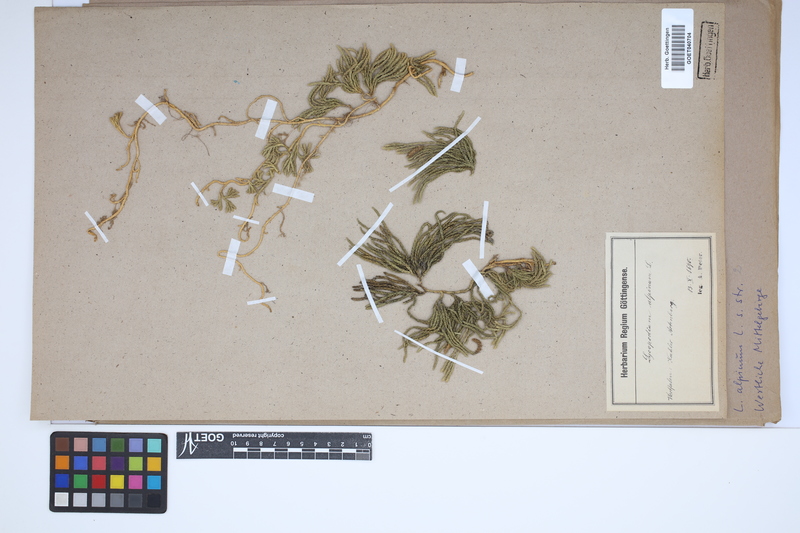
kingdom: Plantae
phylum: Tracheophyta
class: Lycopodiopsida
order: Lycopodiales
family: Lycopodiaceae
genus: Diphasiastrum
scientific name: Diphasiastrum alpinum
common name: Alpine clubmoss
